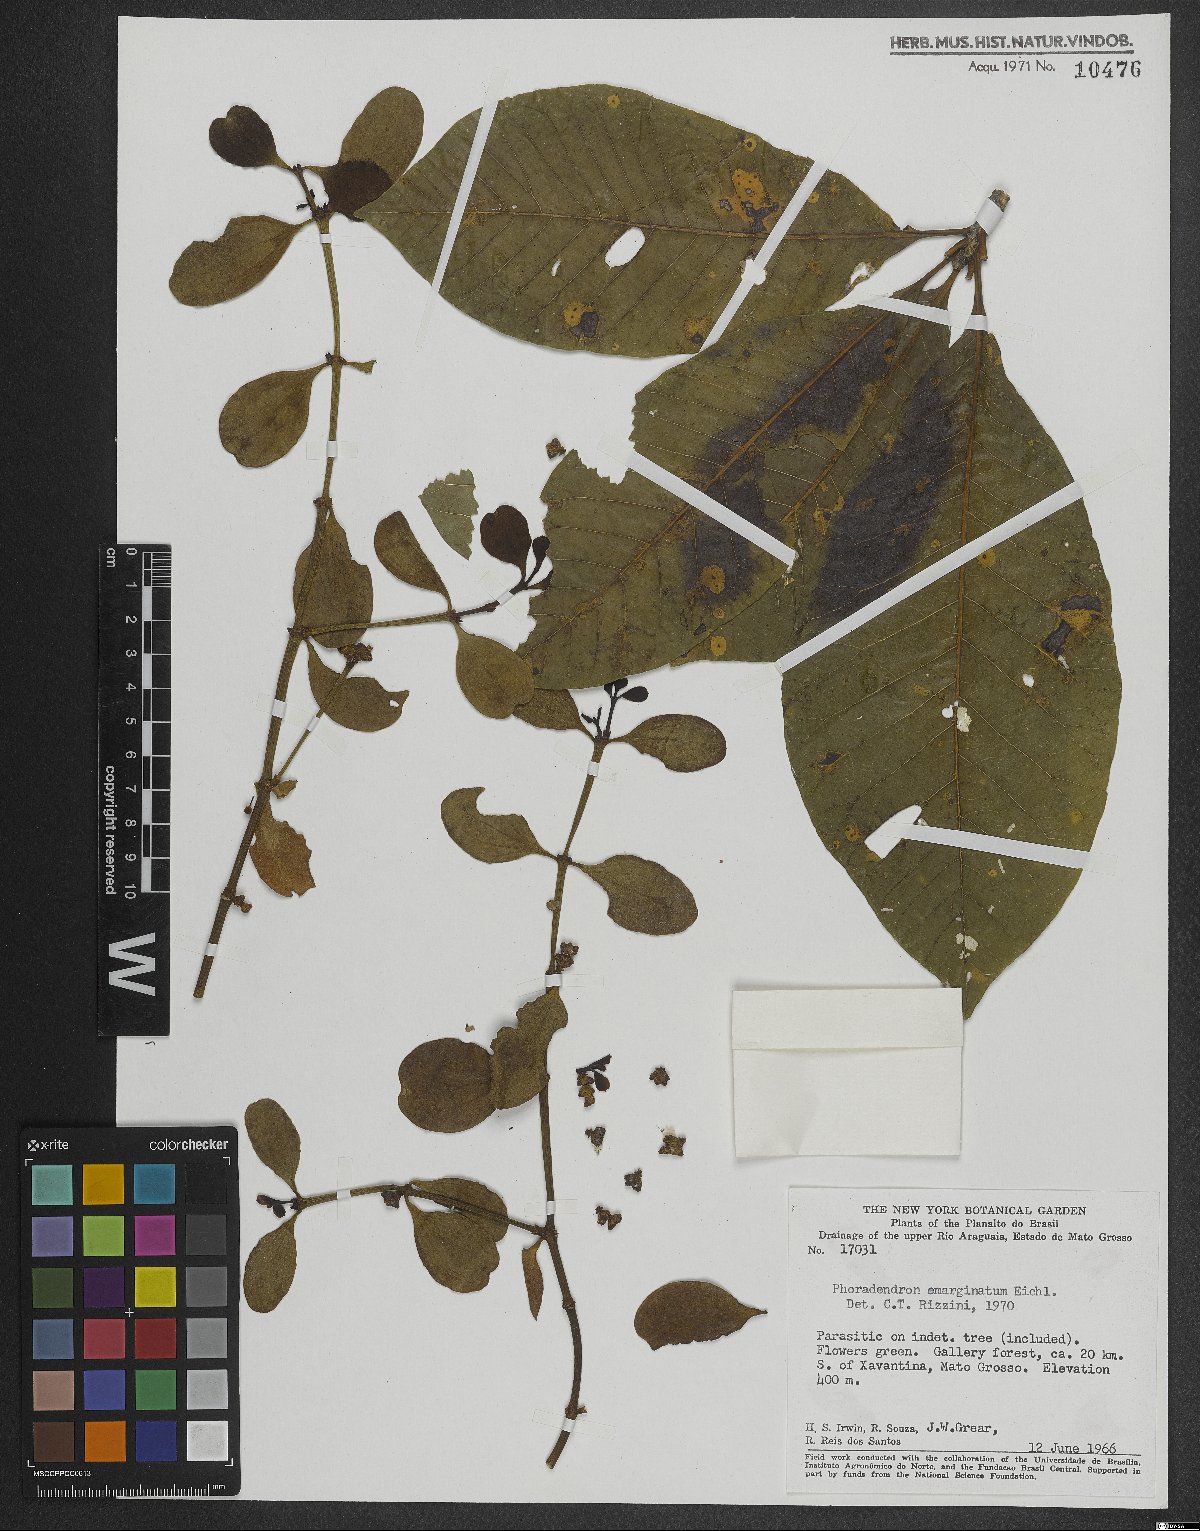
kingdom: Plantae
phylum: Tracheophyta
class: Magnoliopsida
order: Santalales
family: Viscaceae
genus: Phoradendron
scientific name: Phoradendron mucronatum
